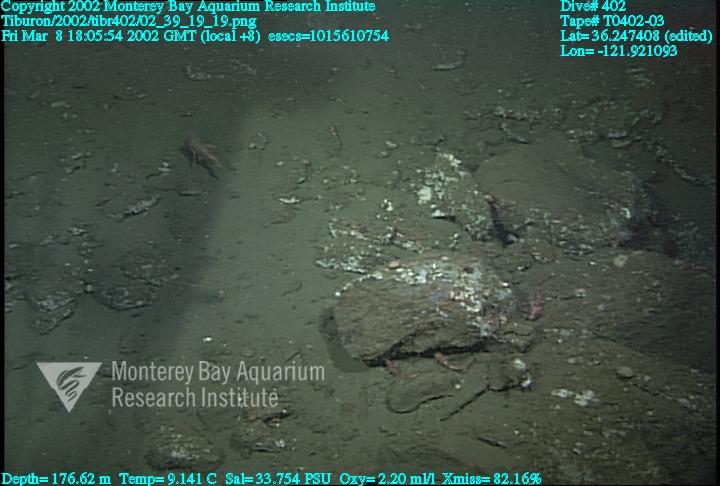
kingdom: Animalia
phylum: Porifera
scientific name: Porifera
